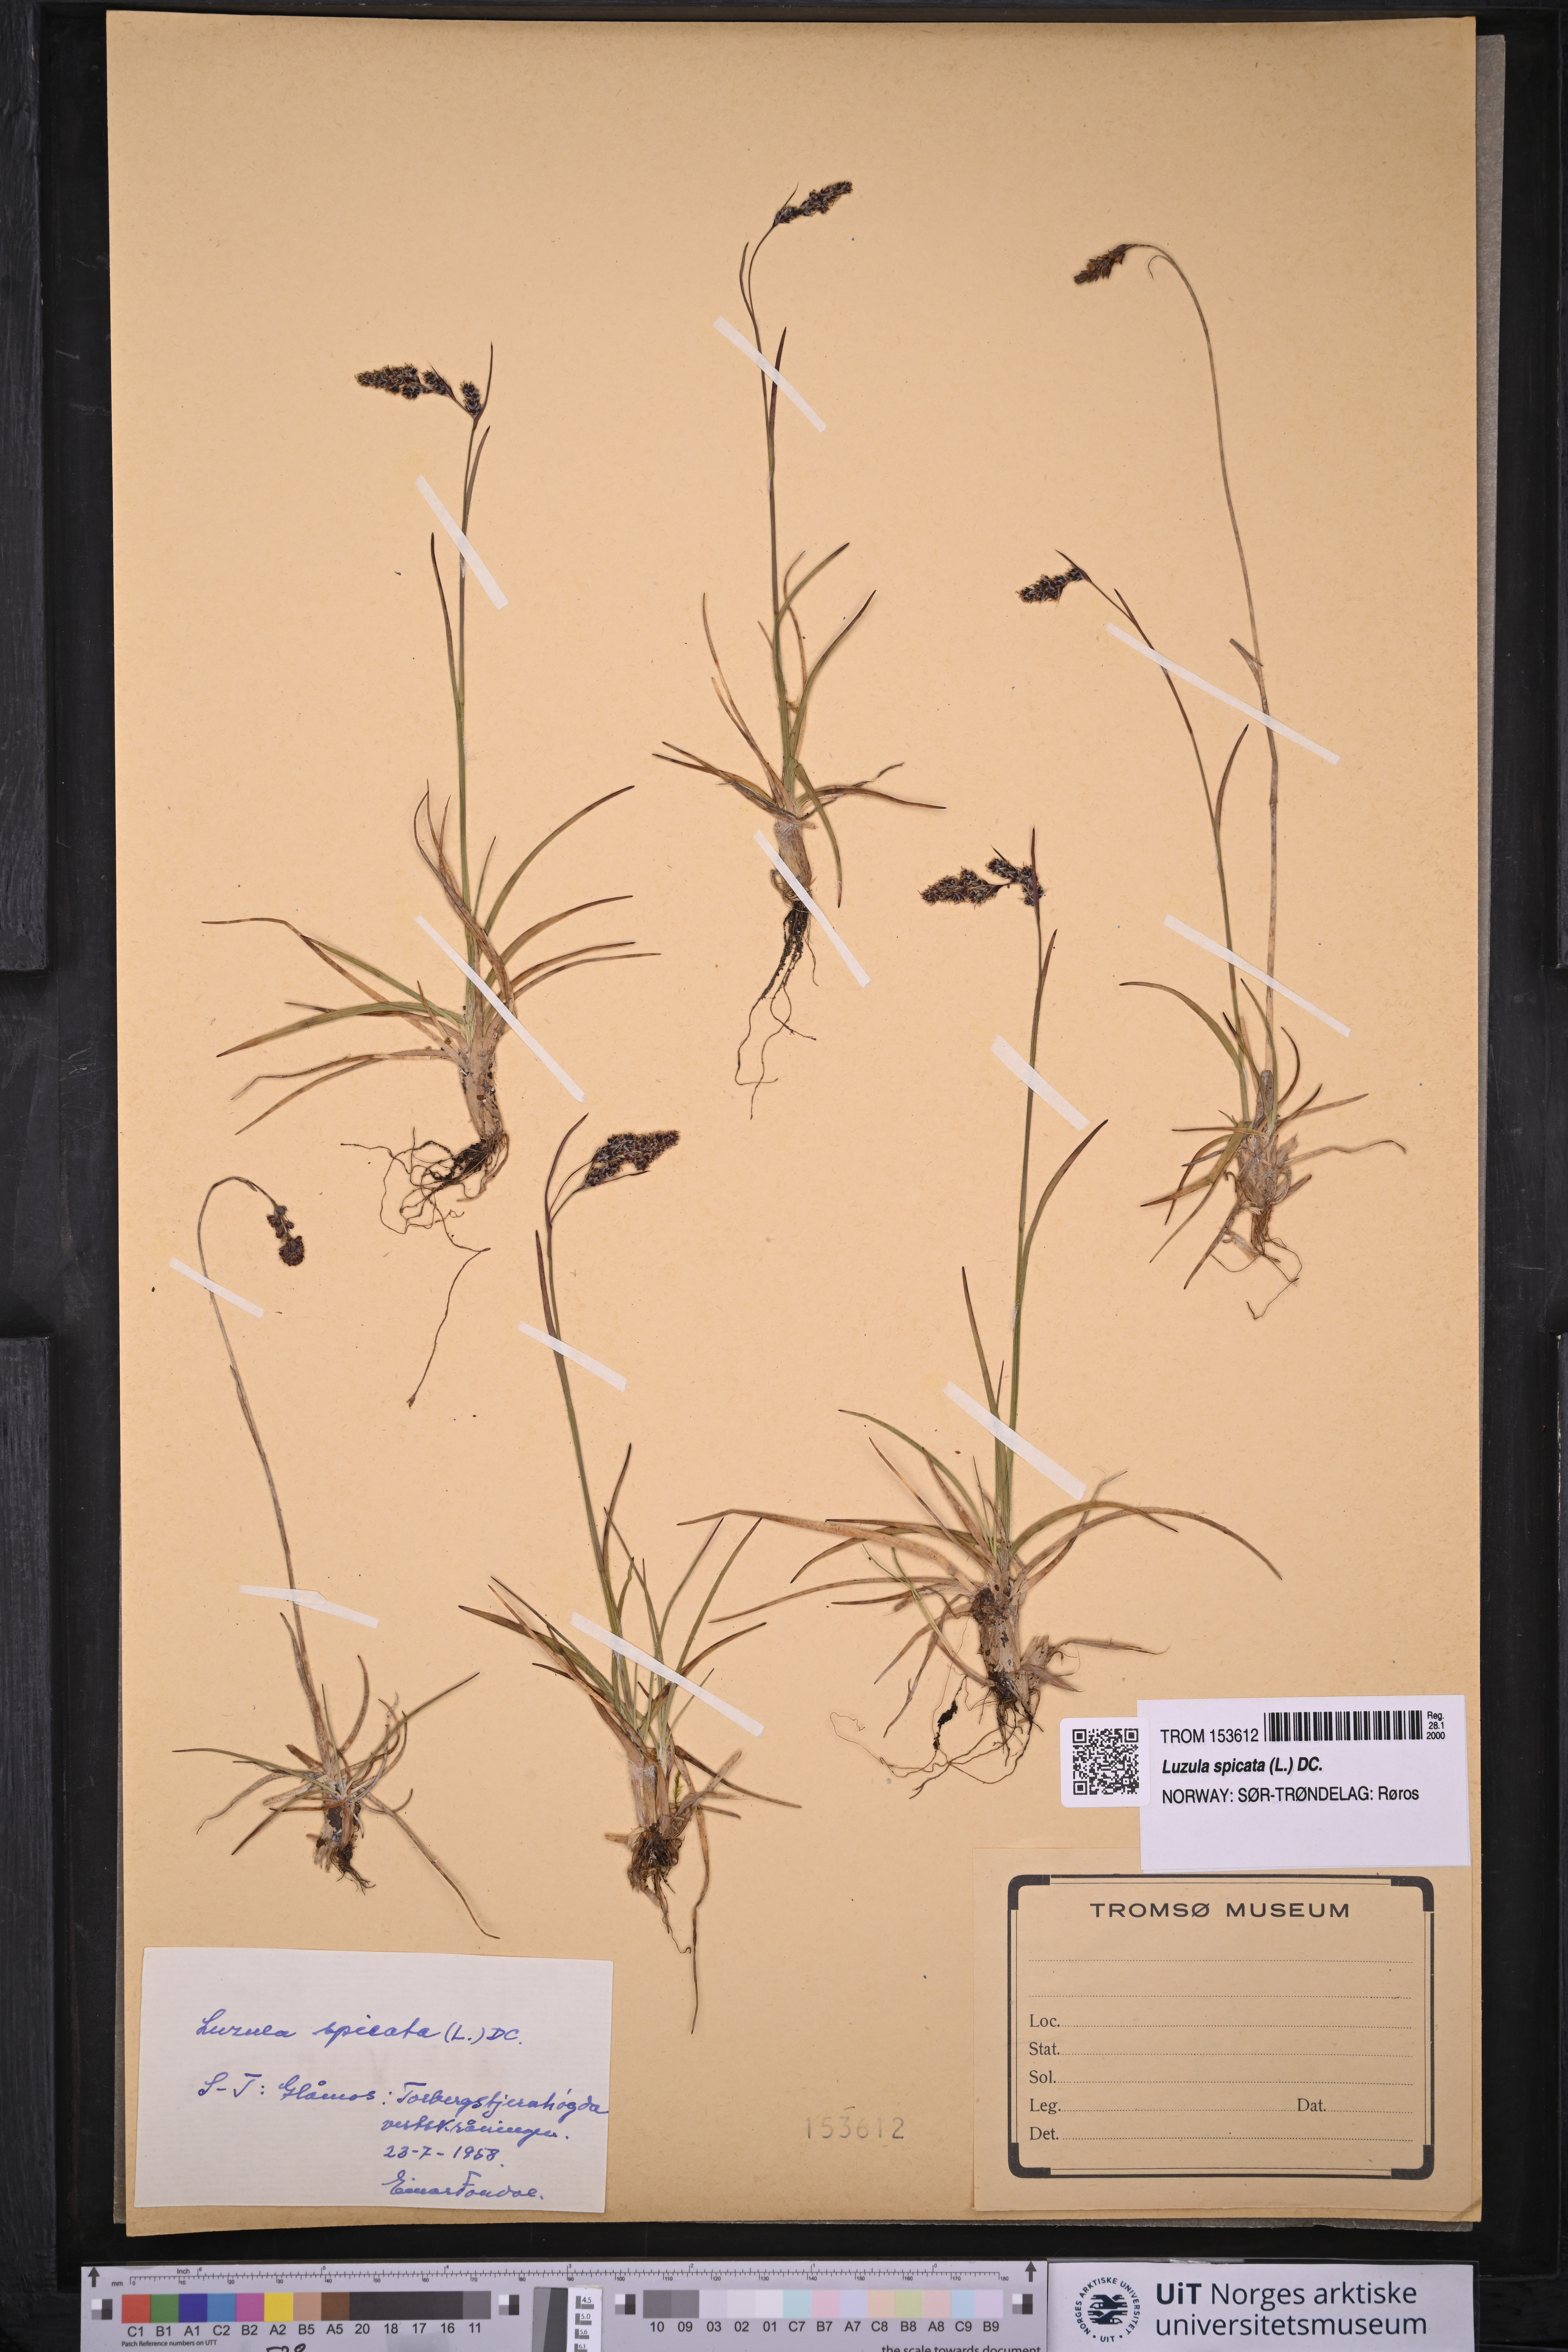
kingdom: Plantae
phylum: Tracheophyta
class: Liliopsida
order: Poales
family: Juncaceae
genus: Luzula
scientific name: Luzula spicata
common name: Spiked wood-rush
